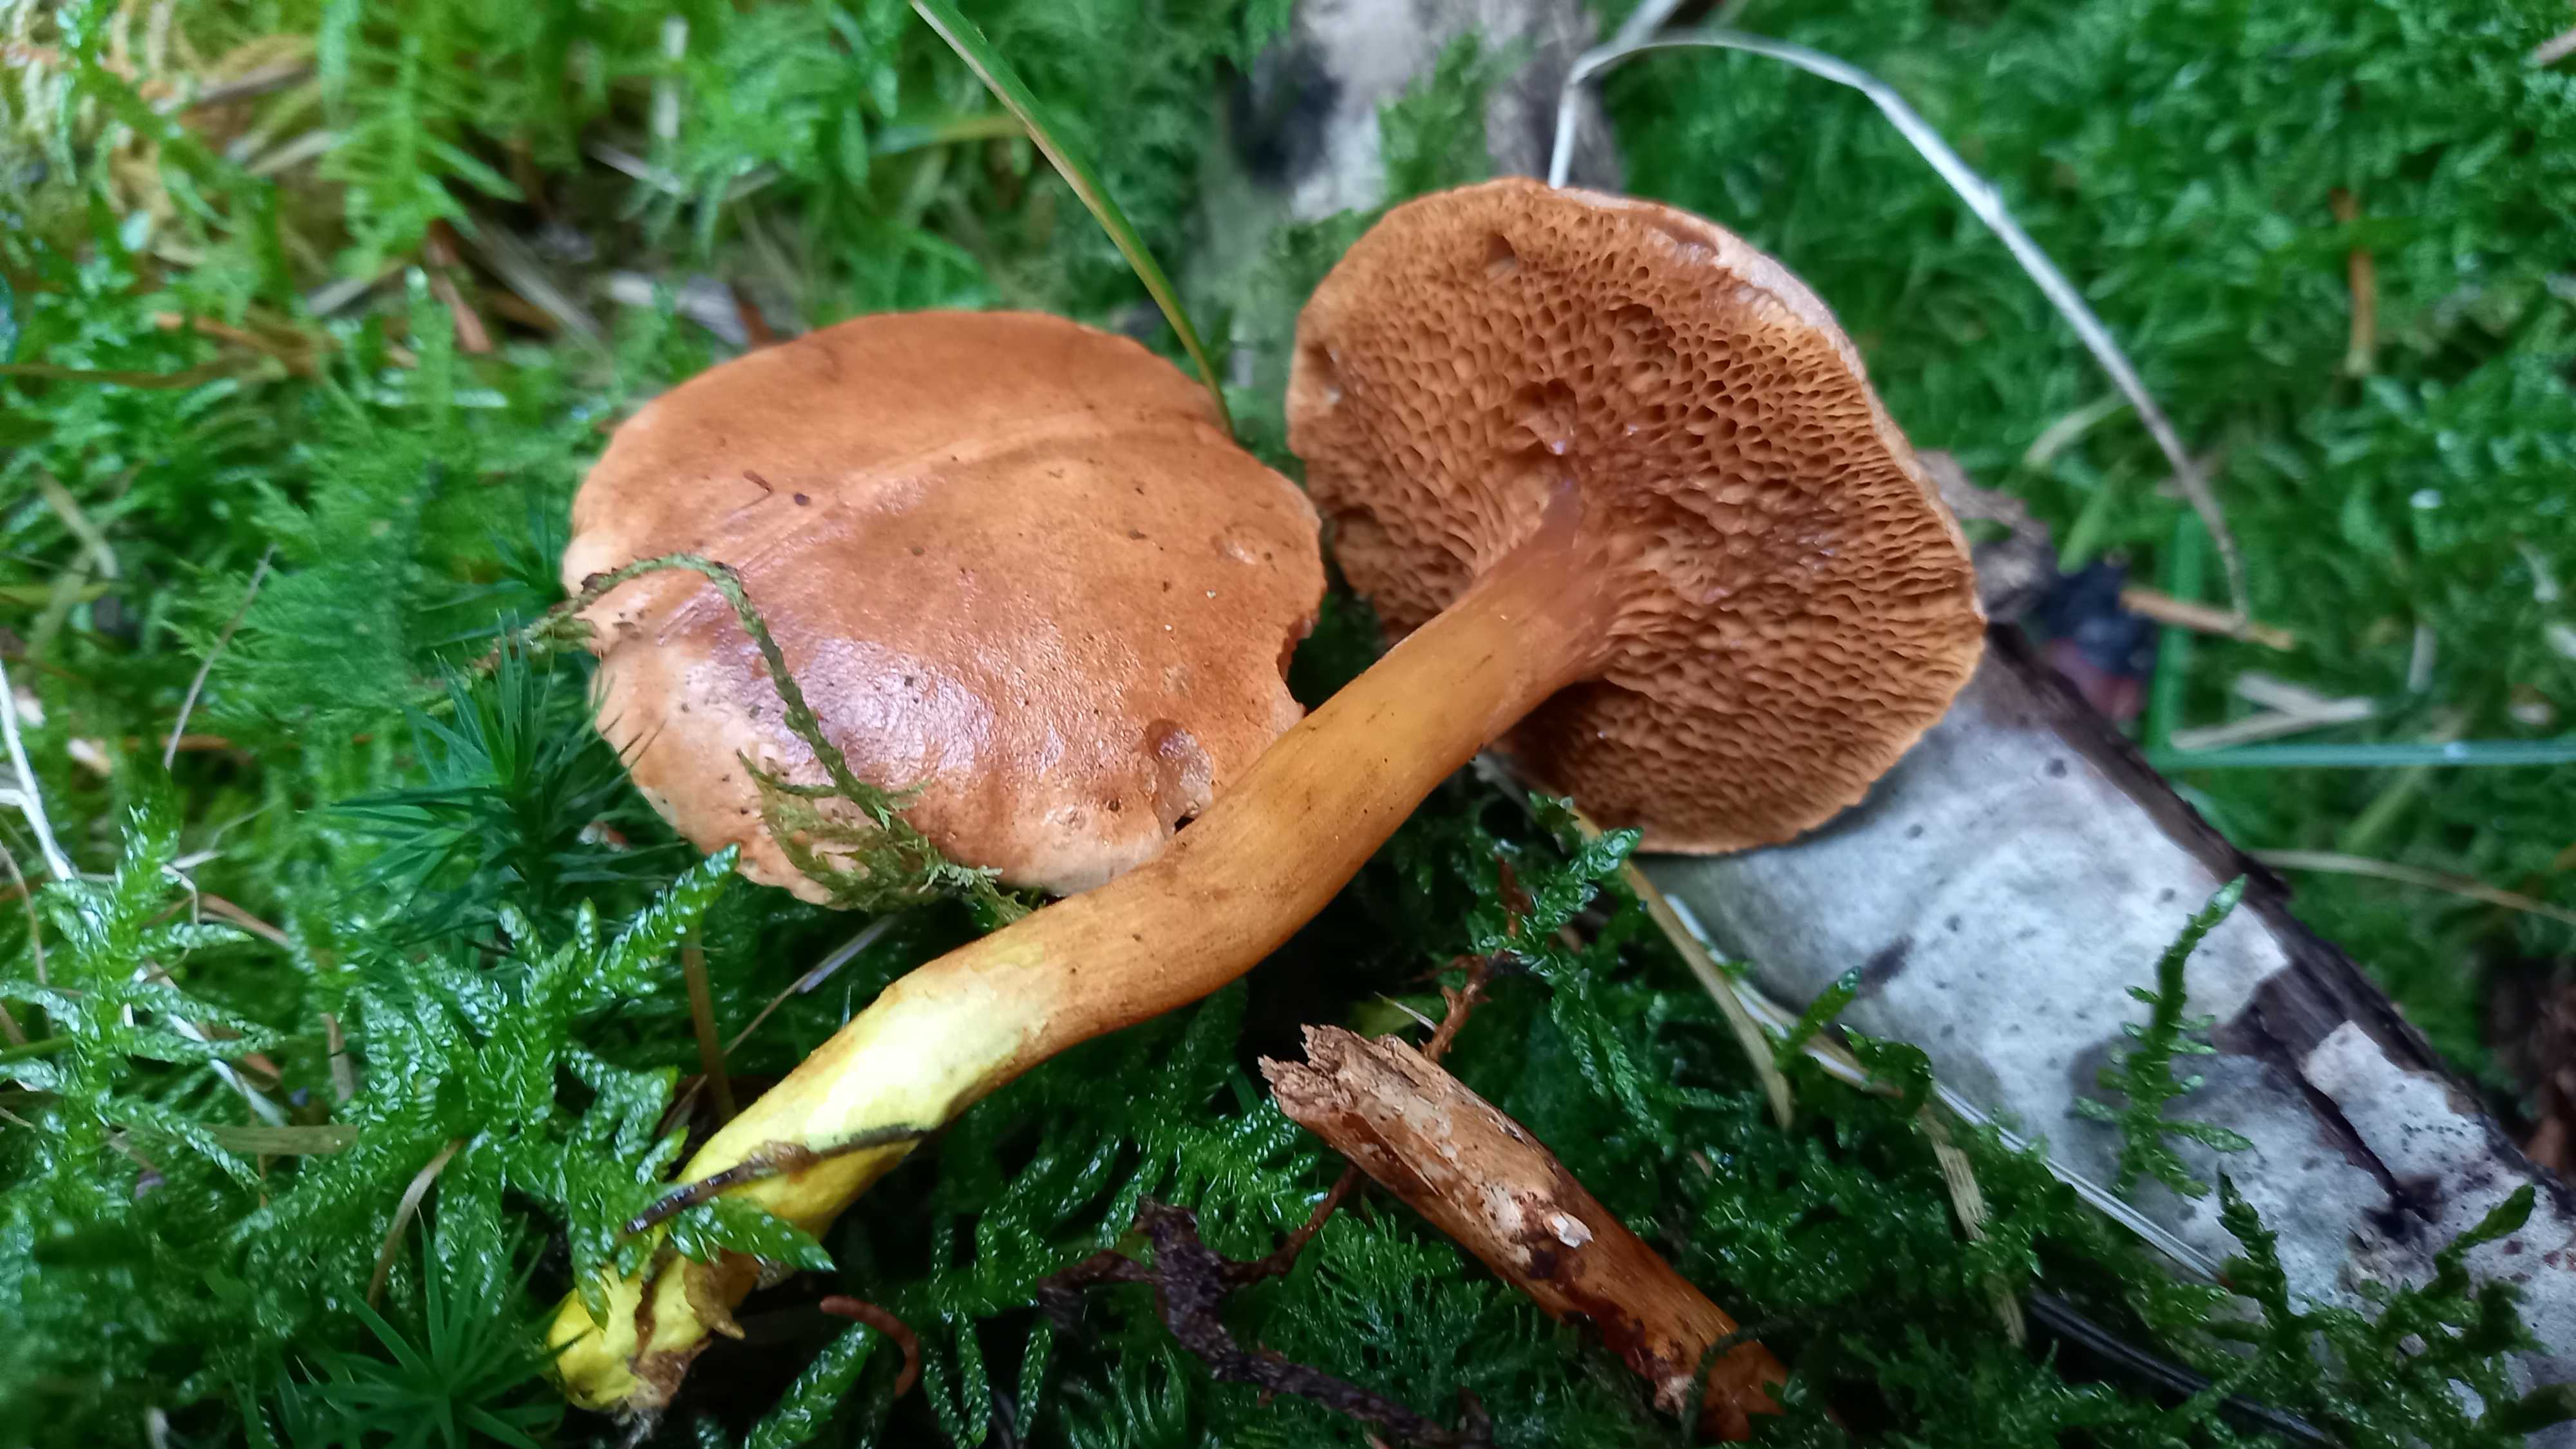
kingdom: Fungi
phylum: Basidiomycota
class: Agaricomycetes
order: Boletales
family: Boletaceae
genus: Chalciporus
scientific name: Chalciporus piperatus
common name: peberrørhat
